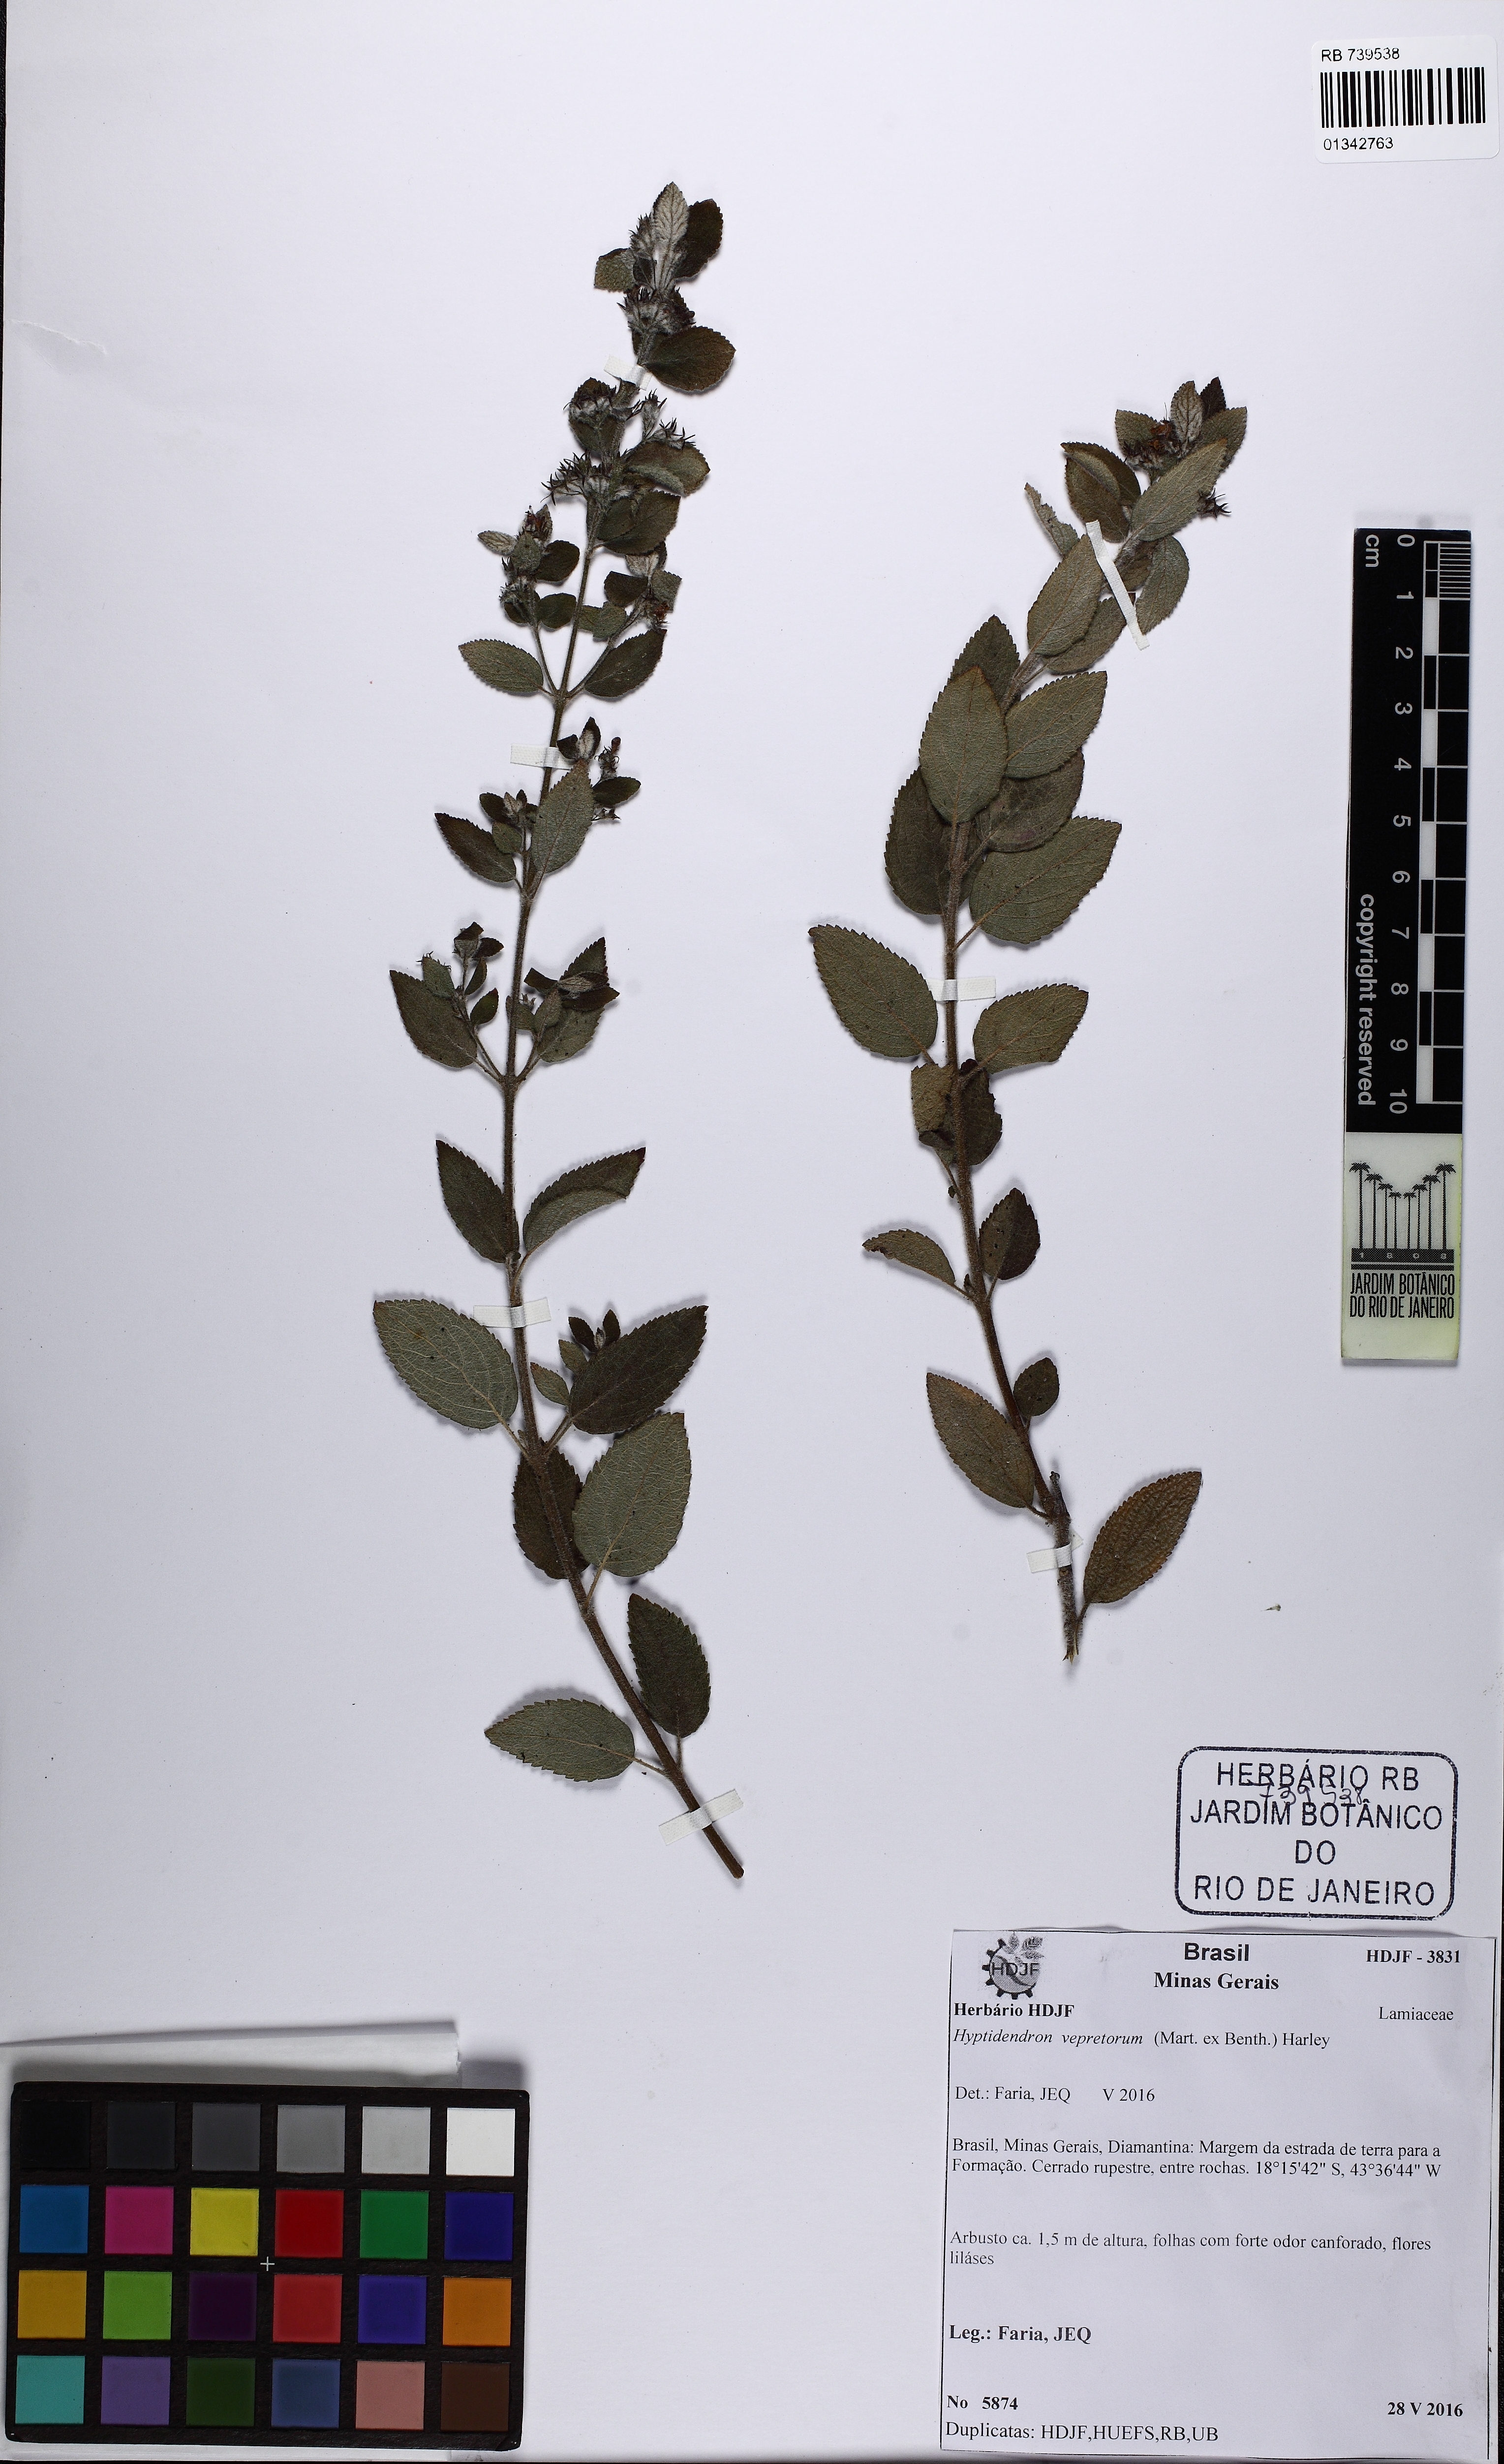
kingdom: Plantae
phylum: Tracheophyta
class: Magnoliopsida
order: Lamiales
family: Lamiaceae
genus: Hyptidendron
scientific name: Hyptidendron vepretorum
